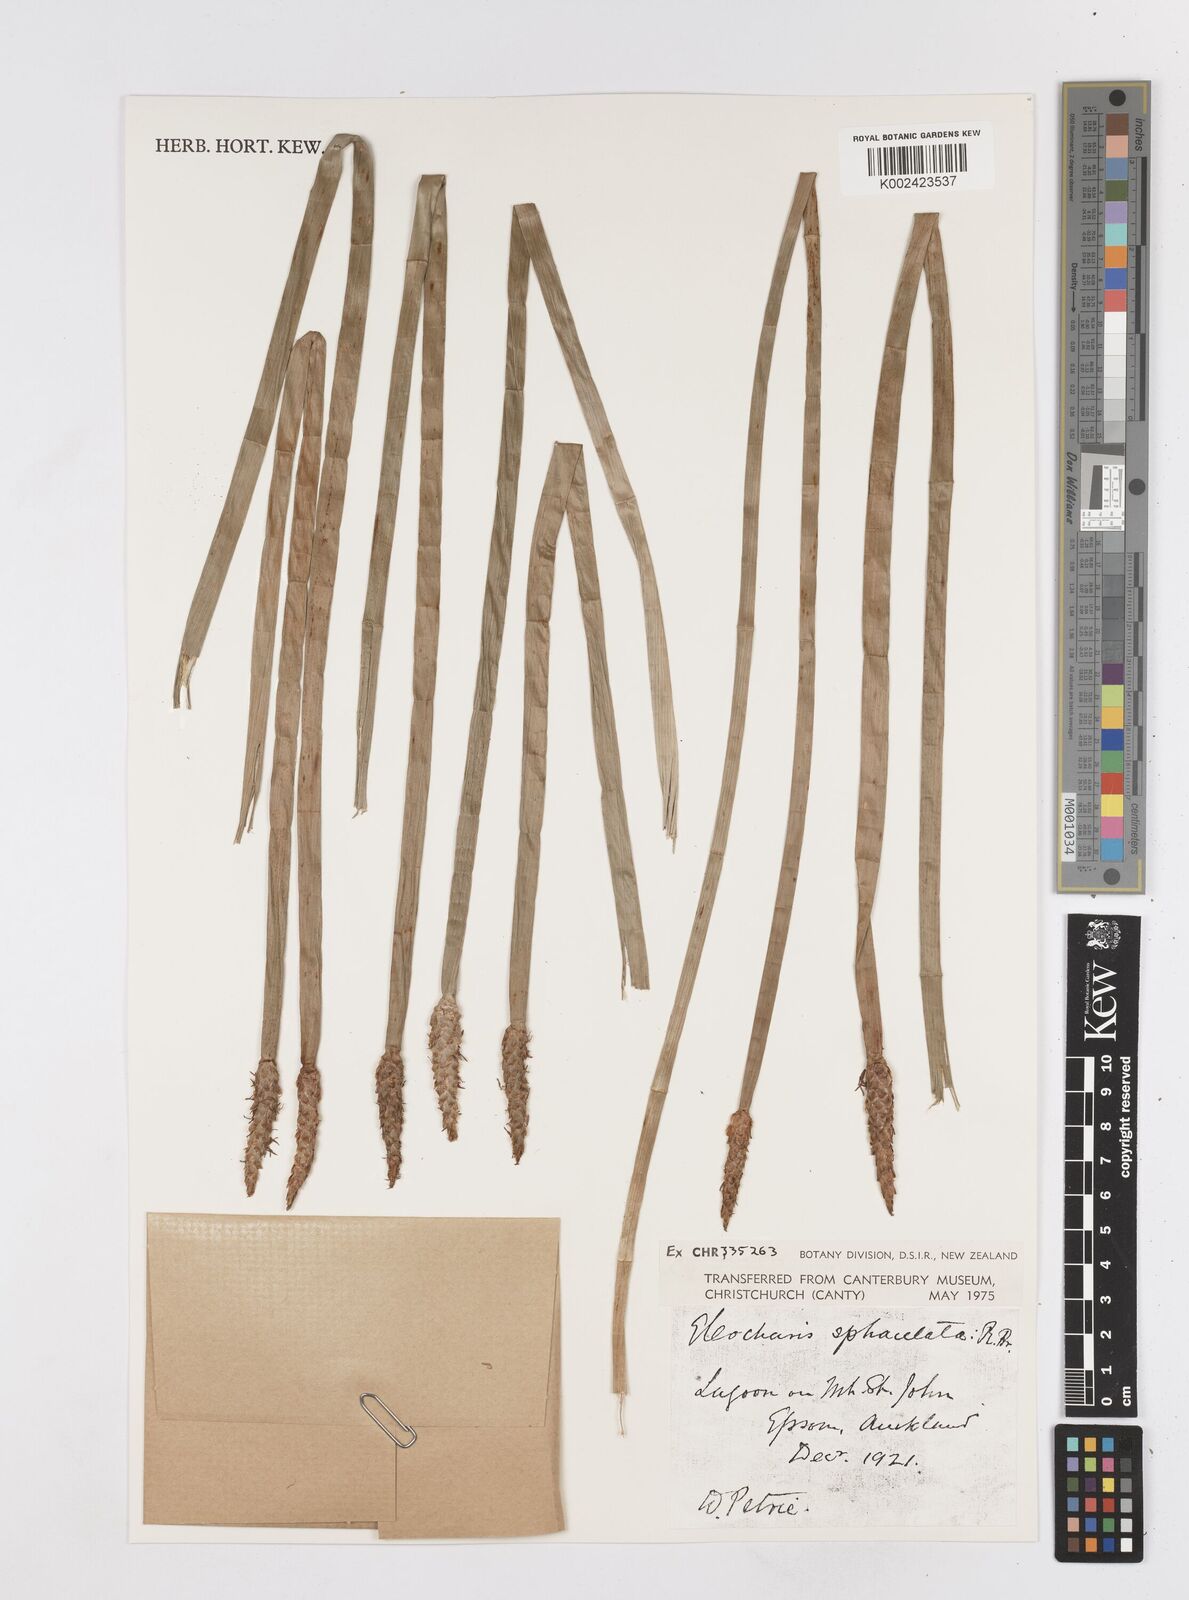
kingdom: Plantae
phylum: Tracheophyta
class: Liliopsida
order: Poales
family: Cyperaceae
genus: Eleocharis
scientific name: Eleocharis sphacelata
